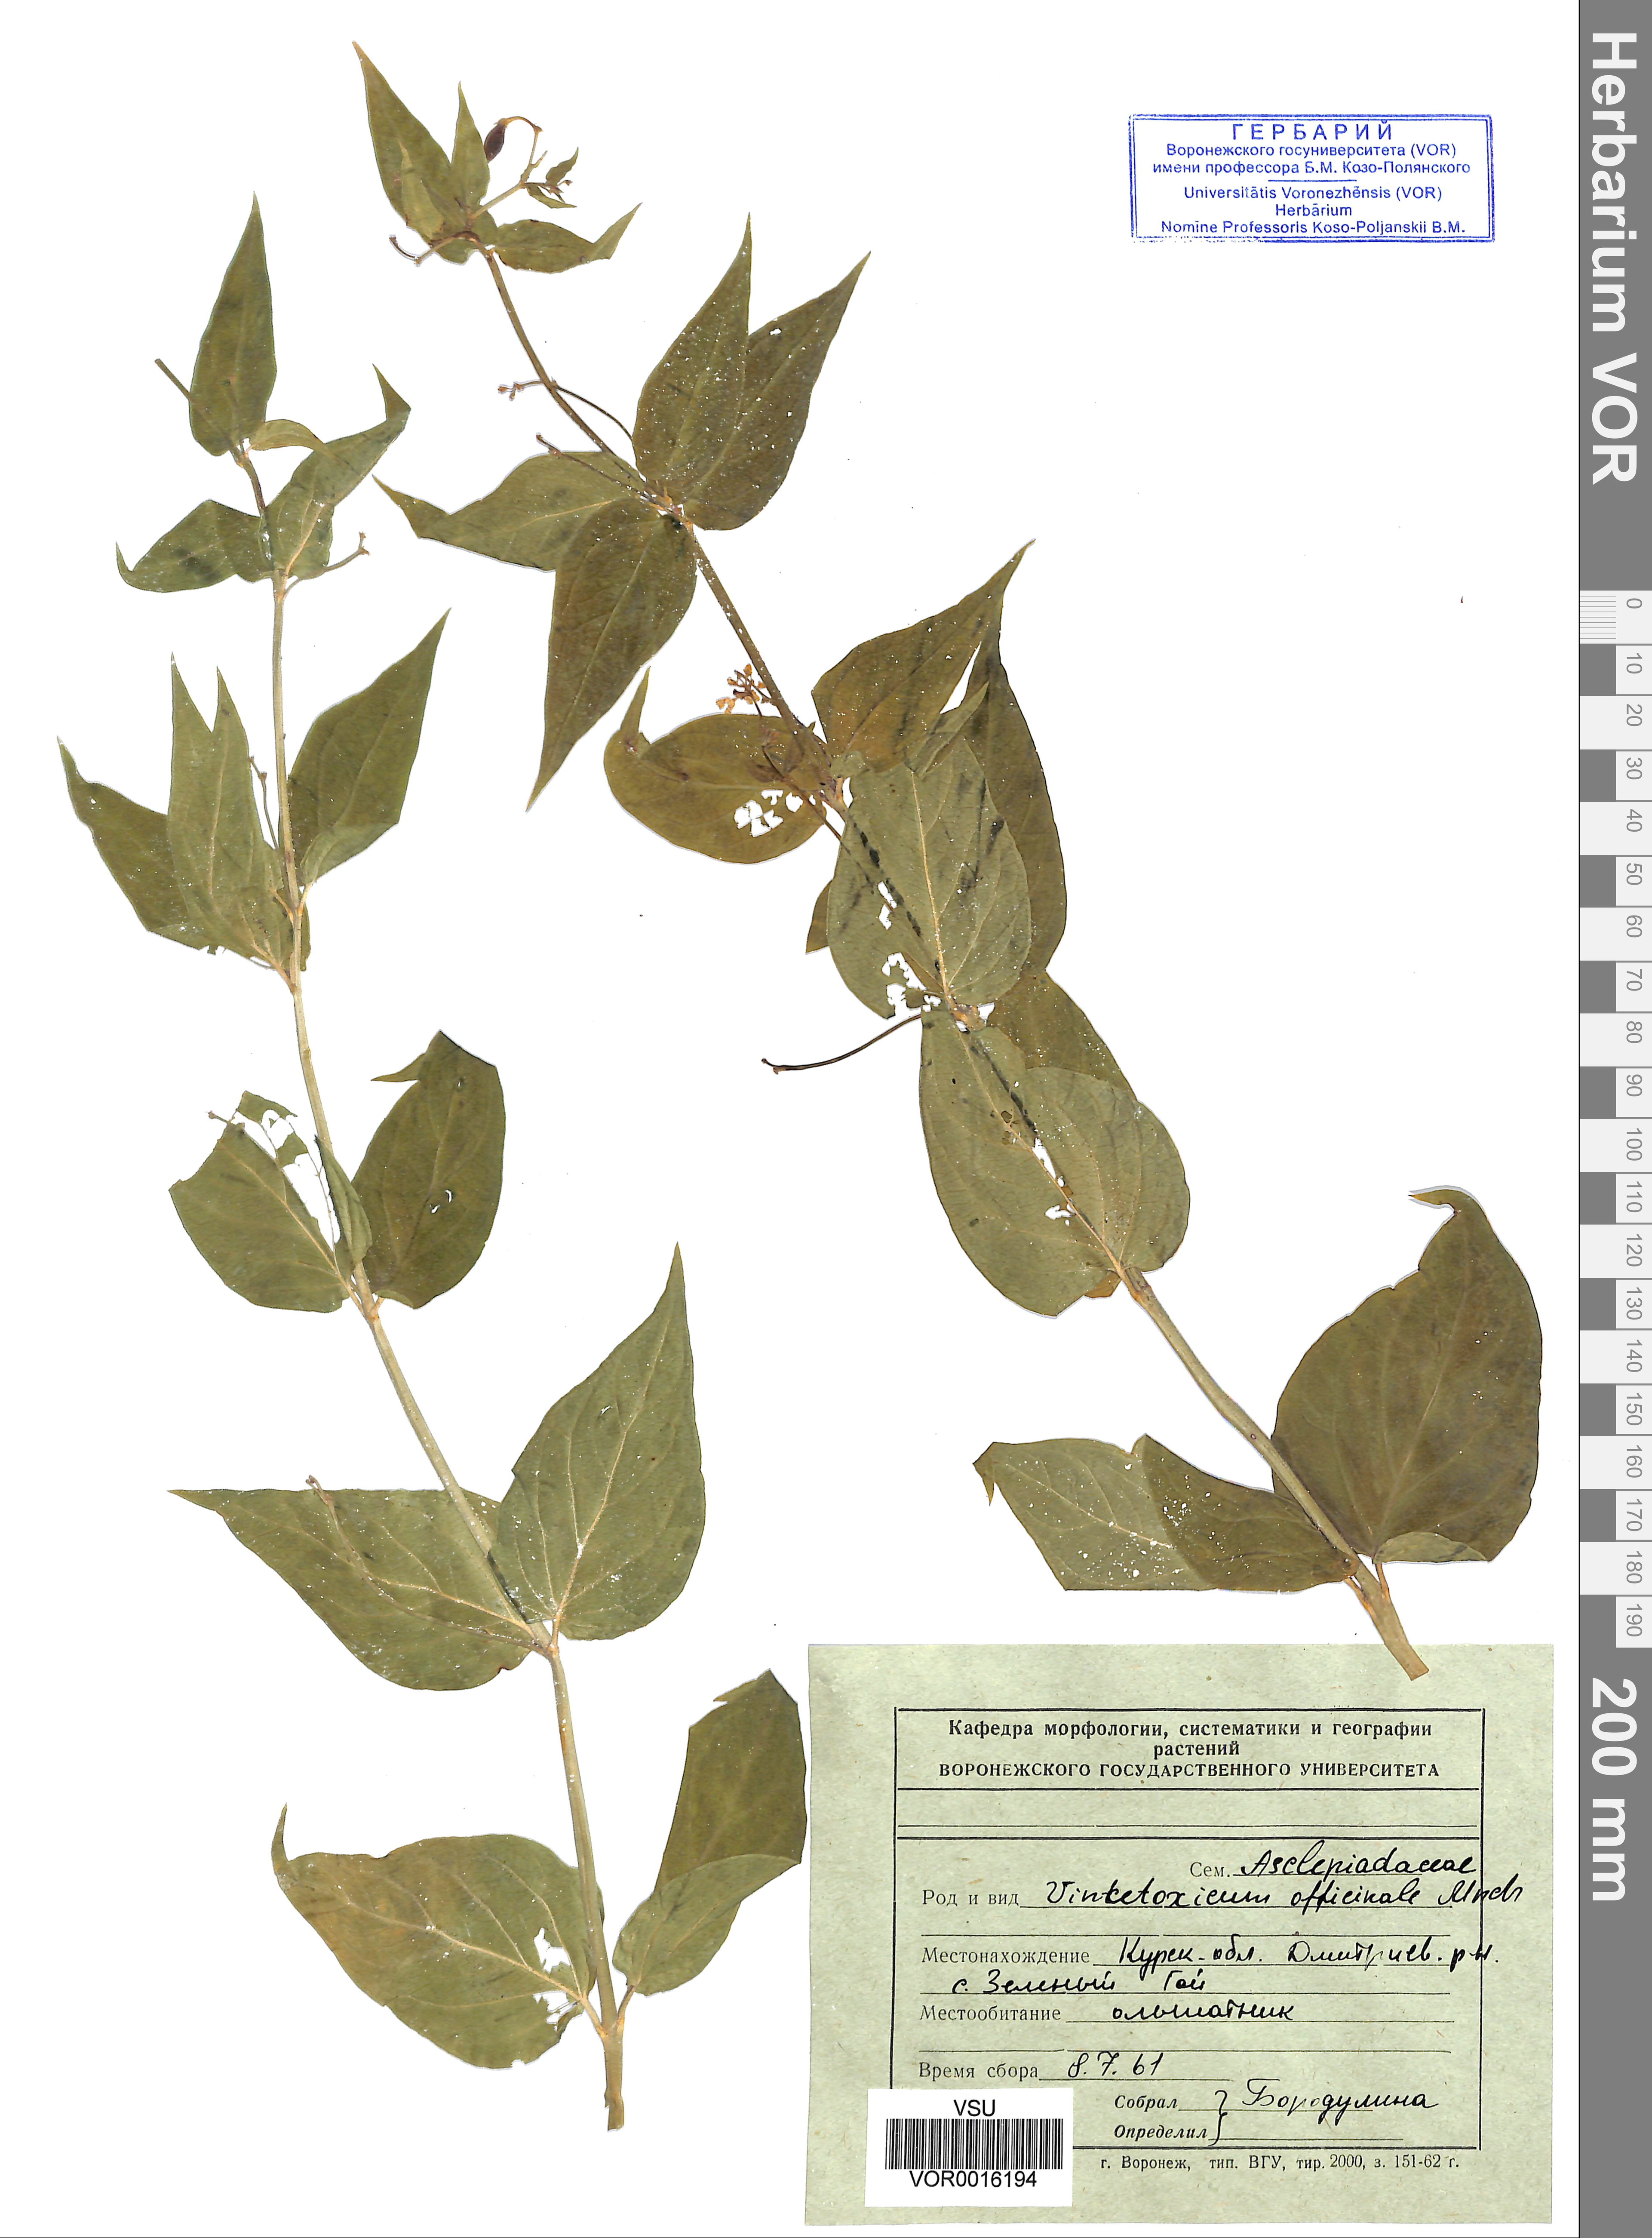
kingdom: Plantae
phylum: Tracheophyta
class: Magnoliopsida
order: Gentianales
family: Apocynaceae
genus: Vincetoxicum
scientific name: Vincetoxicum hirundinaria
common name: White swallowwort
